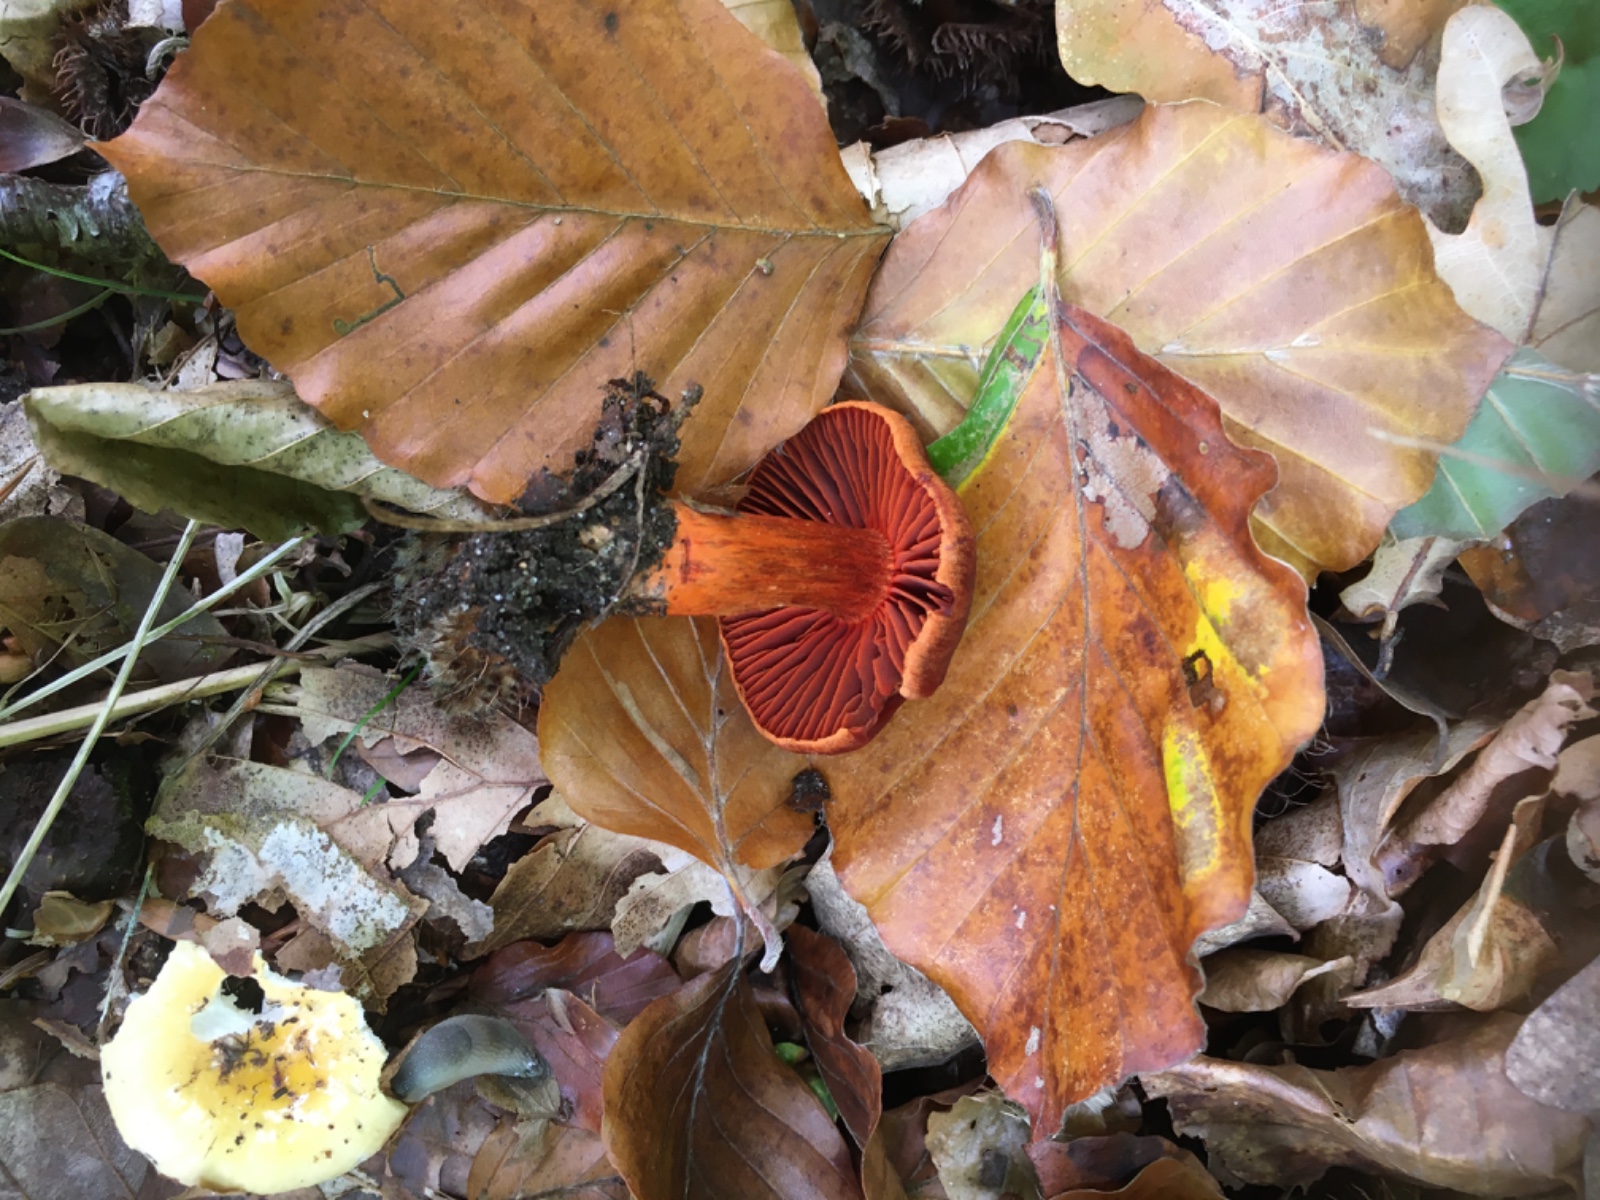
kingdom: Fungi
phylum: Basidiomycota
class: Agaricomycetes
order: Agaricales
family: Cortinariaceae
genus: Cortinarius
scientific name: Cortinarius cinnabarinus
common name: cinnober-slørhat
